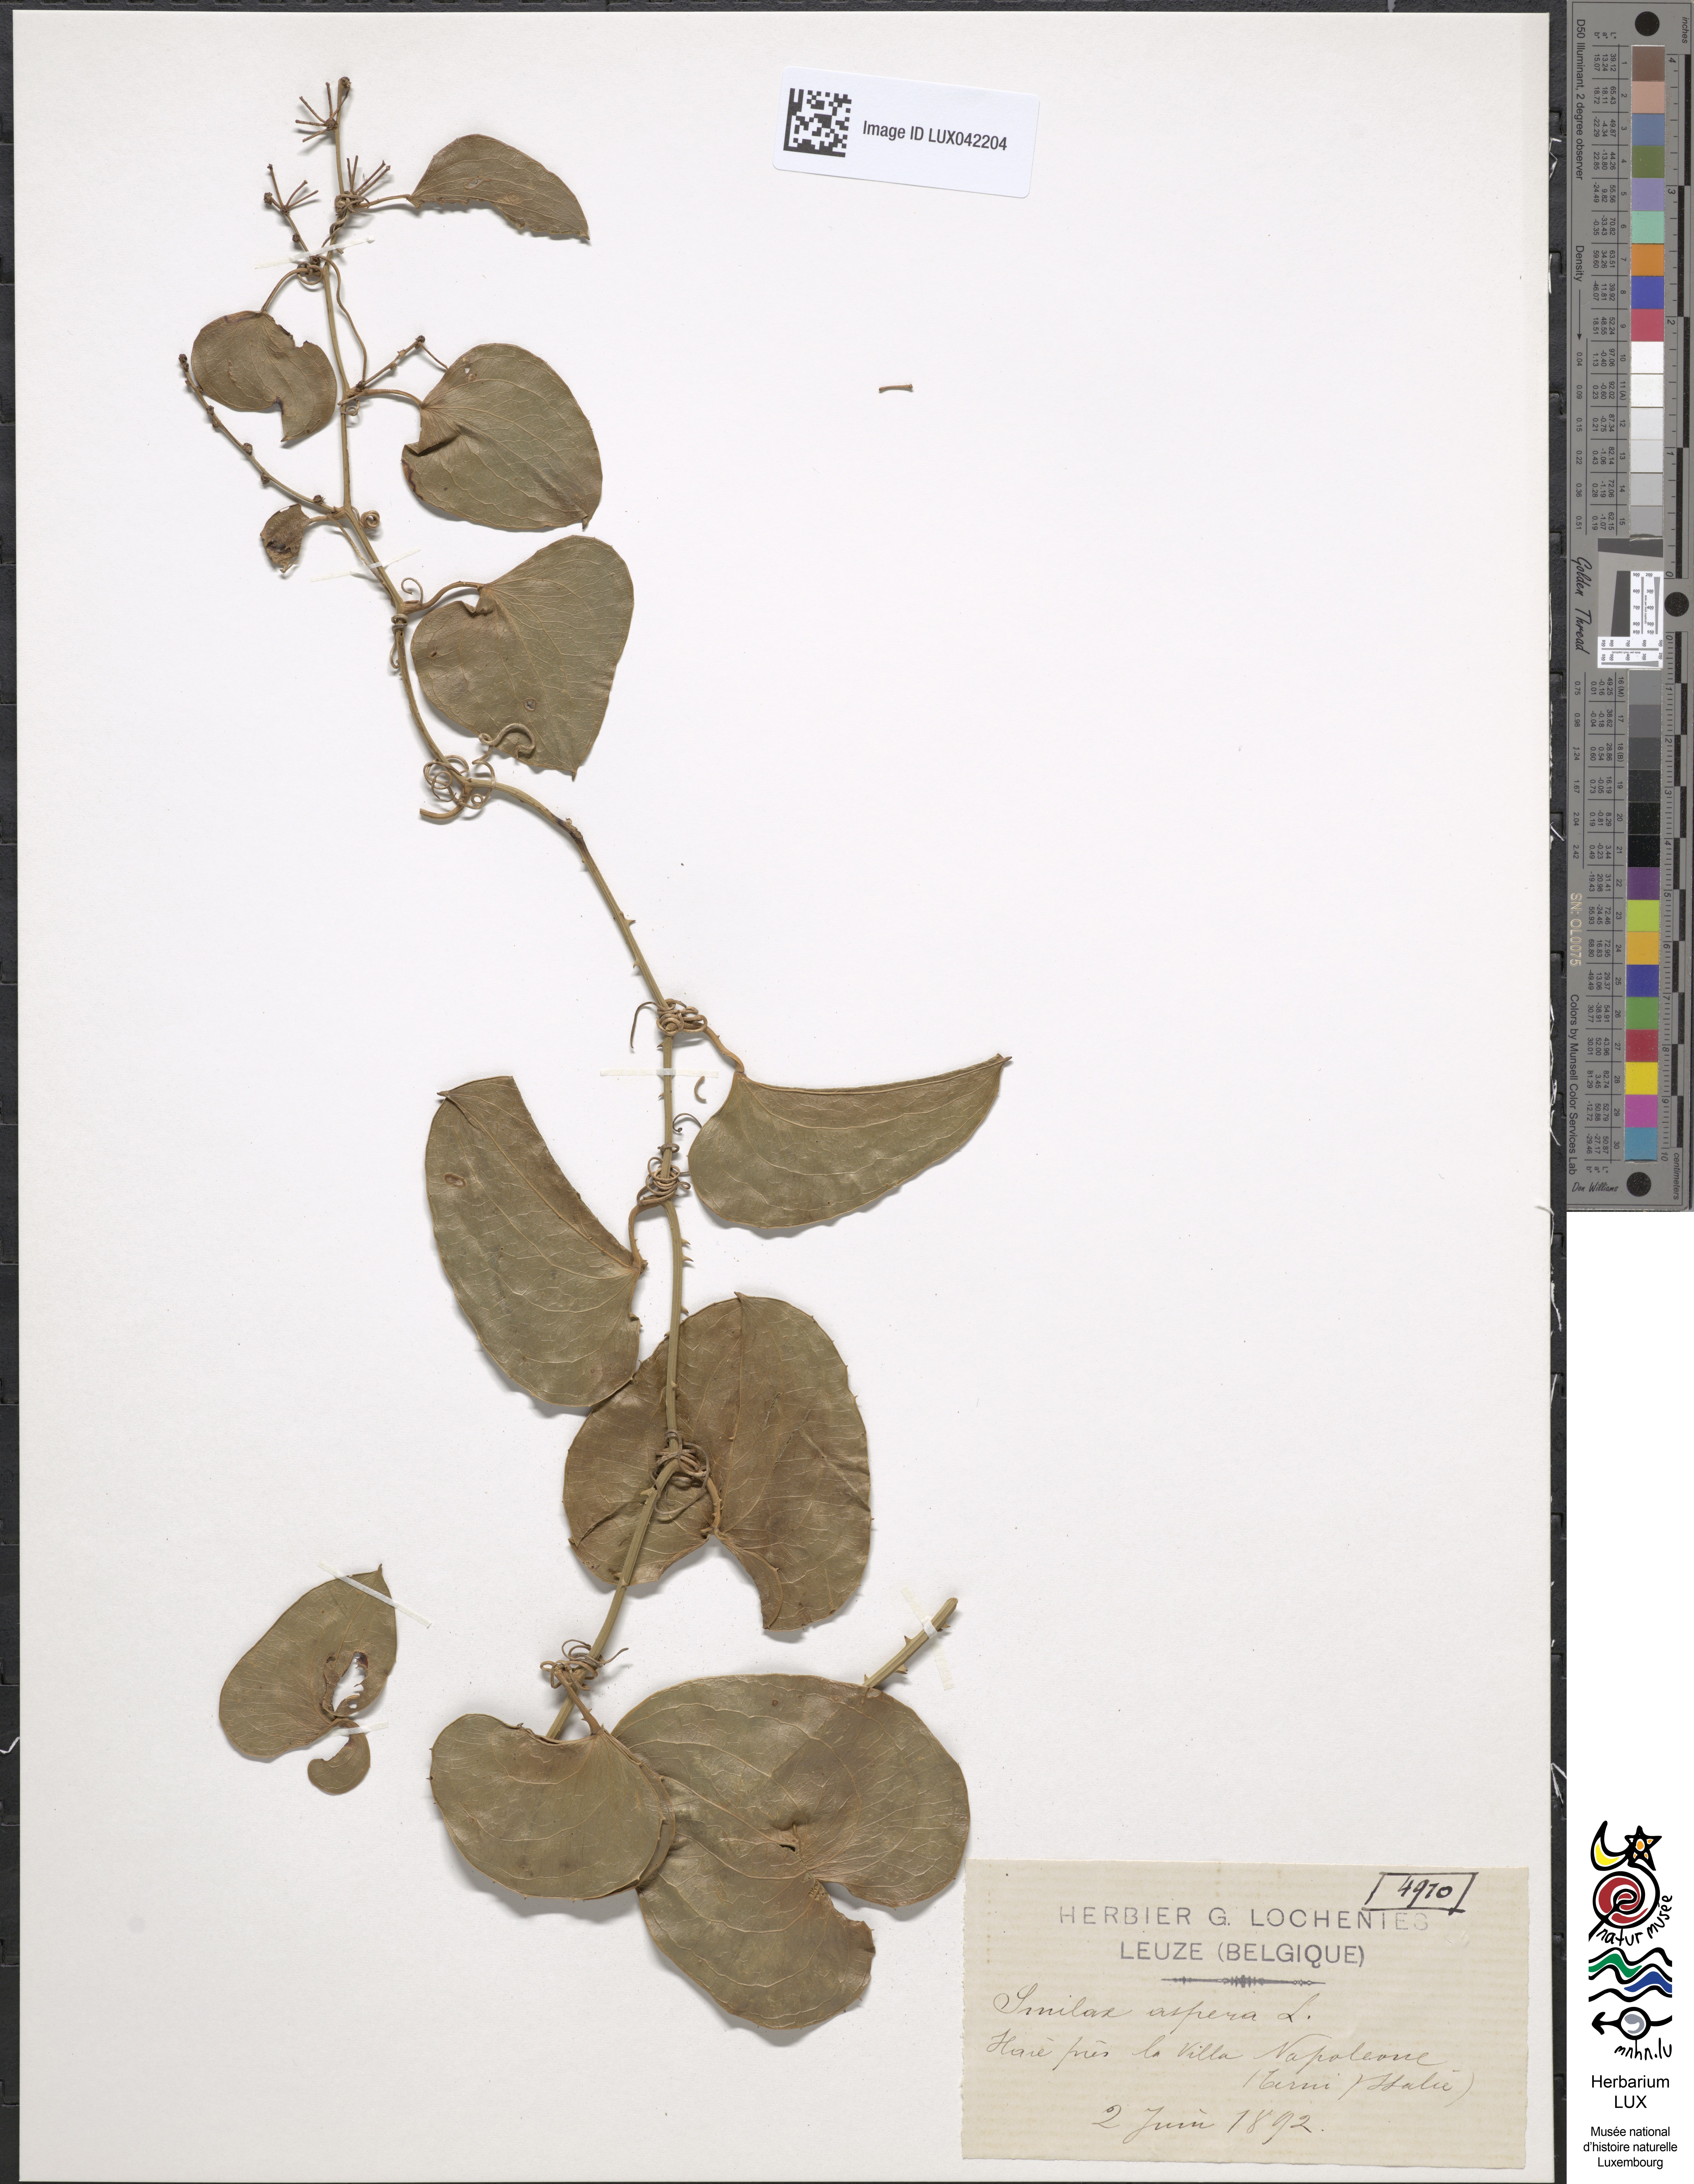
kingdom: Plantae
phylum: Tracheophyta
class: Liliopsida
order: Liliales
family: Smilacaceae
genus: Smilax
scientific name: Smilax aspera
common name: Common smilax
